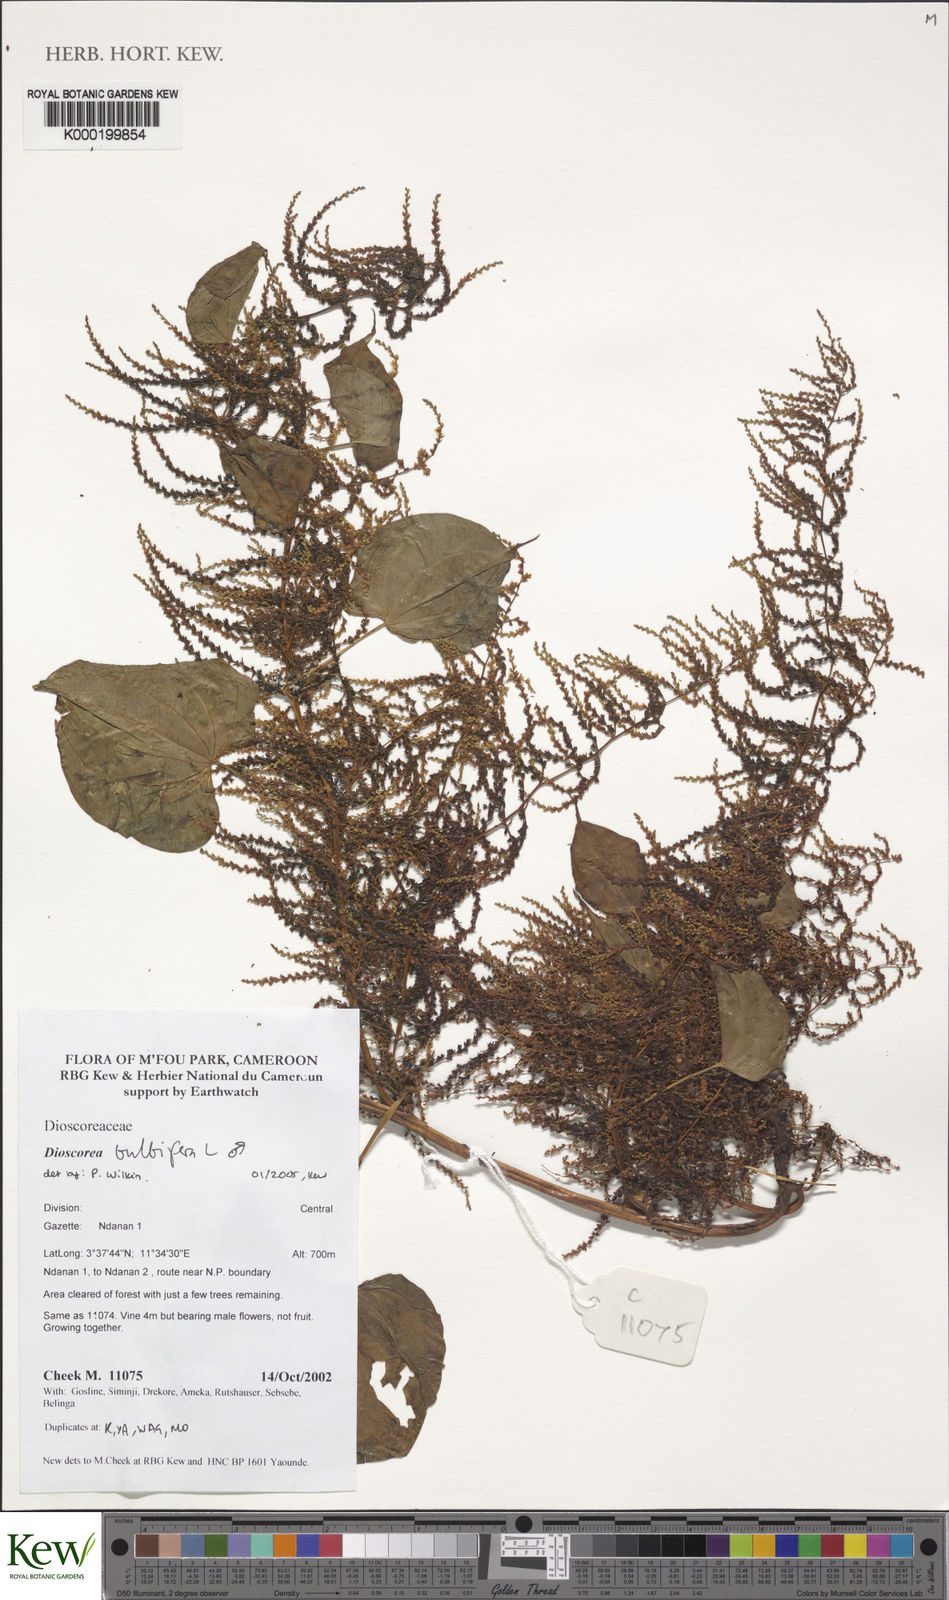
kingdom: Plantae
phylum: Tracheophyta
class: Liliopsida
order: Dioscoreales
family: Dioscoreaceae
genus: Dioscorea
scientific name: Dioscorea bulbifera
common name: Air yam
